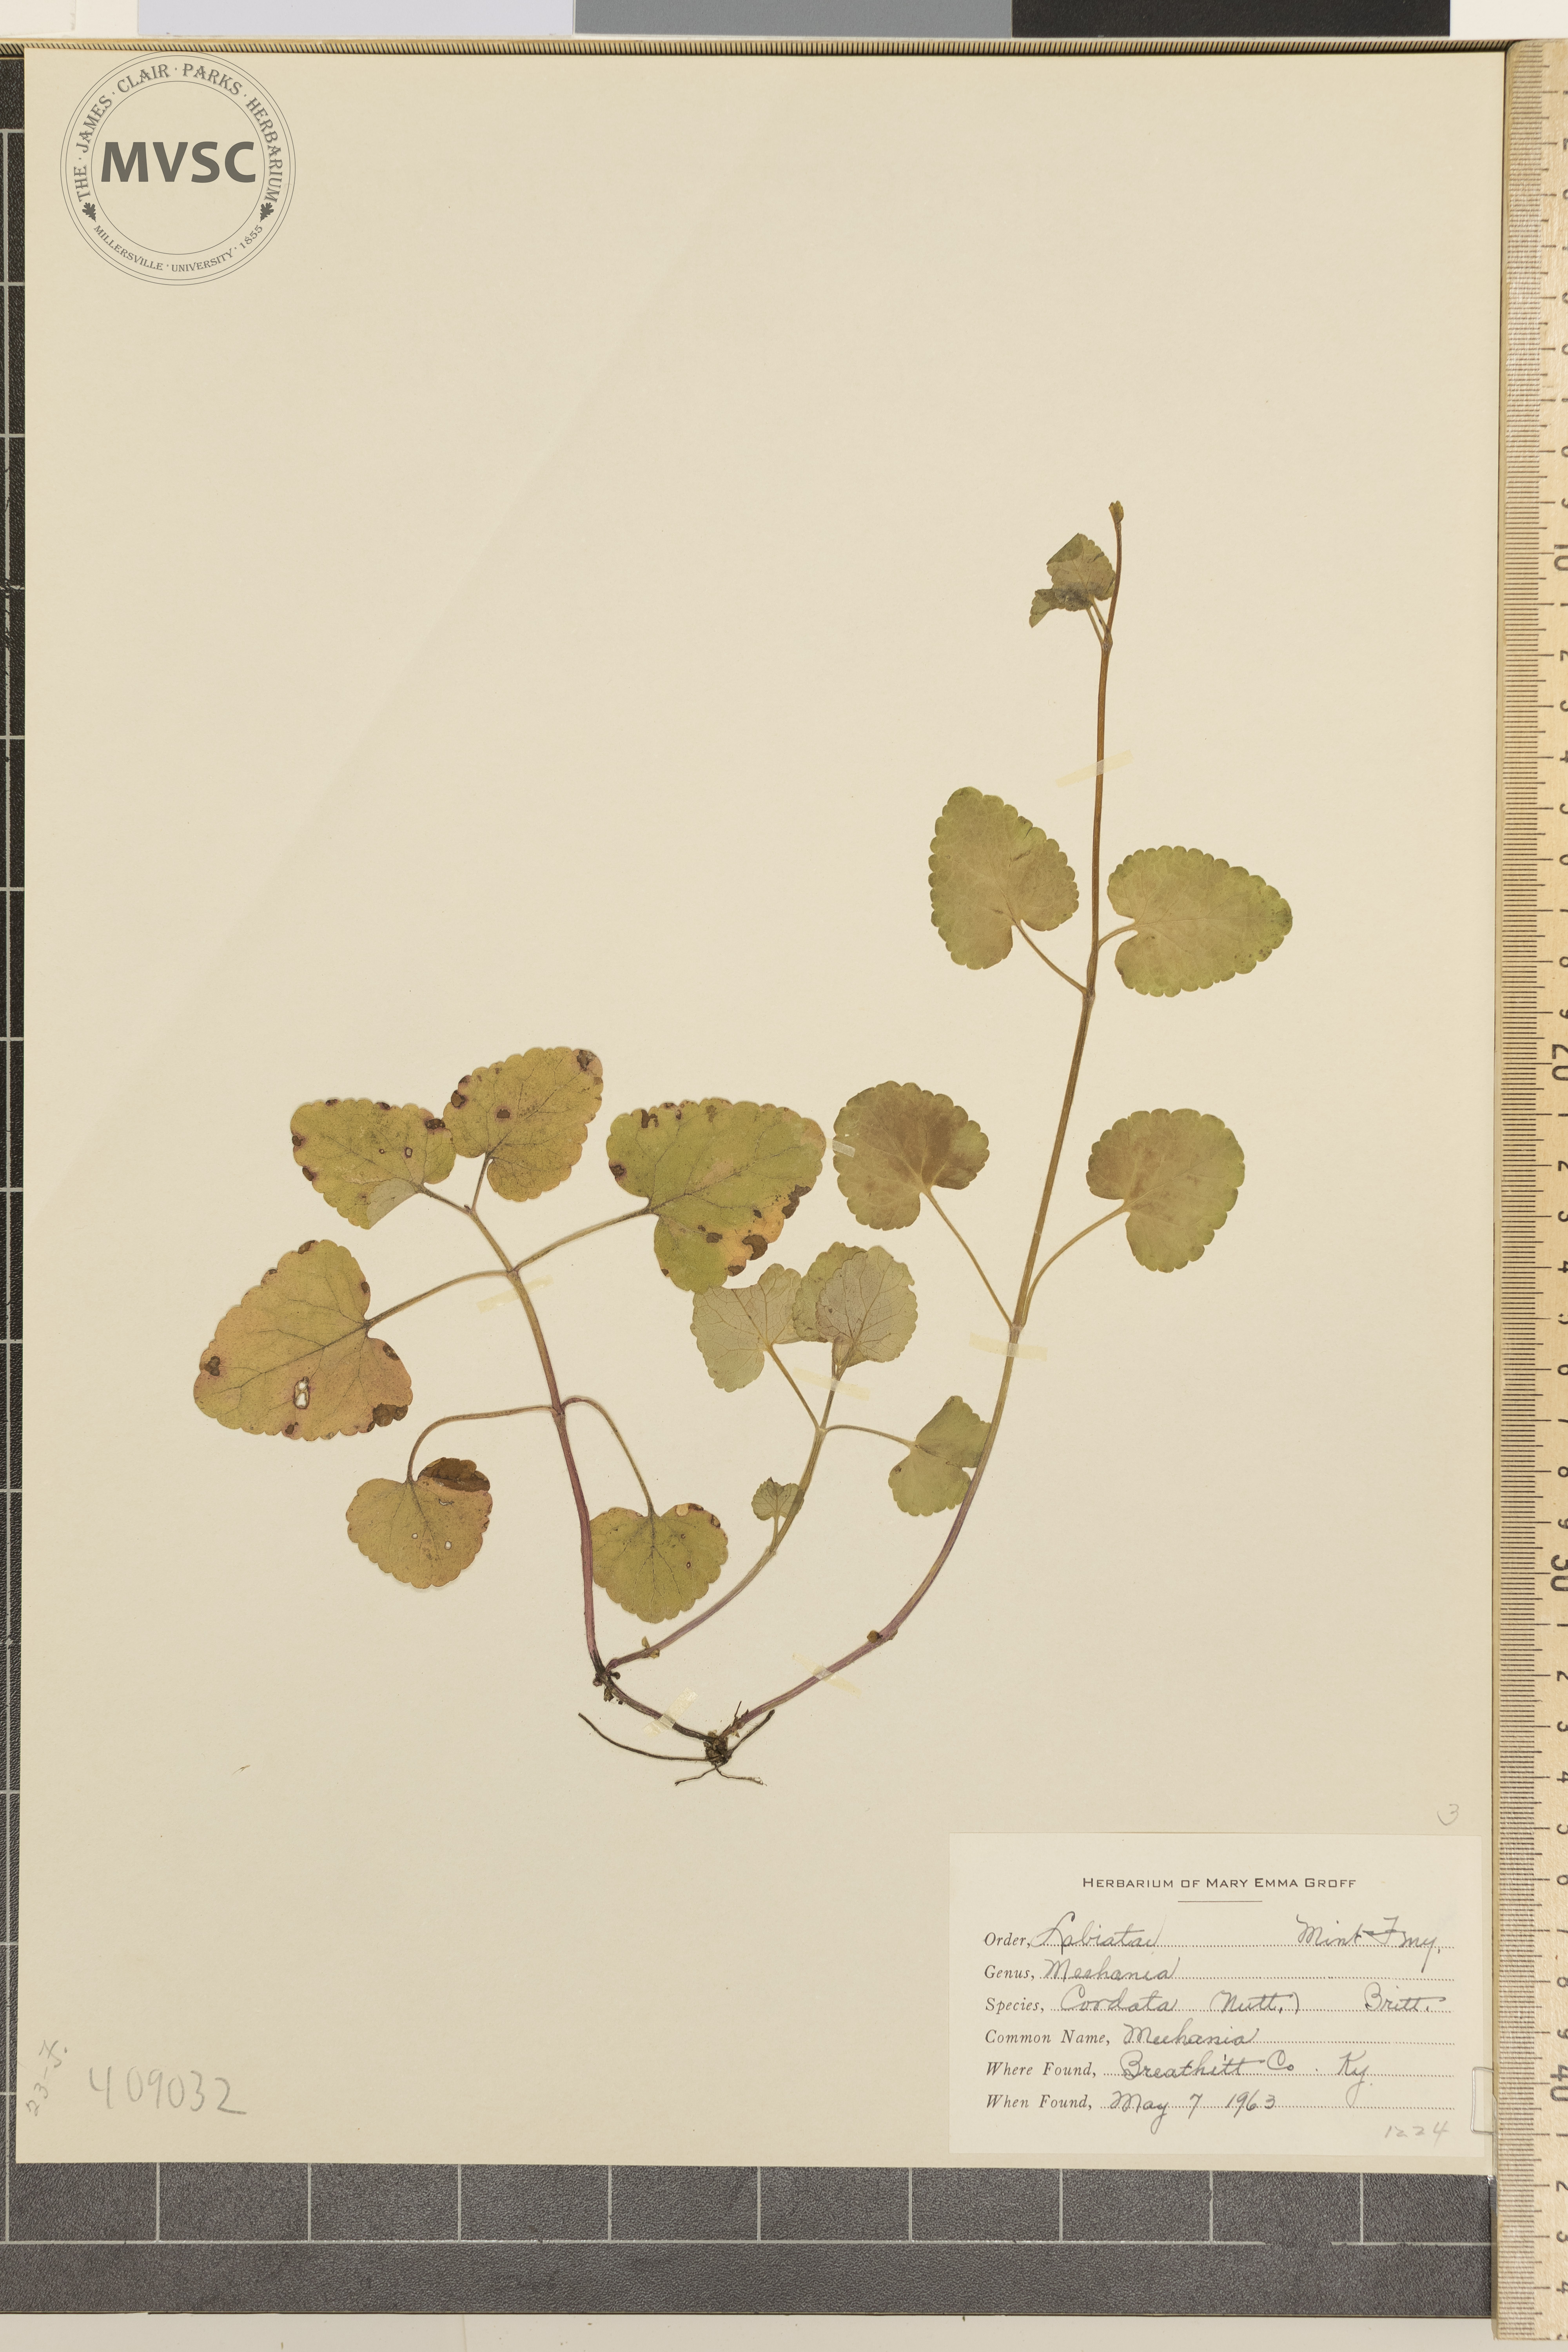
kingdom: Plantae
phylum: Tracheophyta
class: Magnoliopsida
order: Lamiales
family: Lamiaceae
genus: Meehania
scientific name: Meehania cordata
